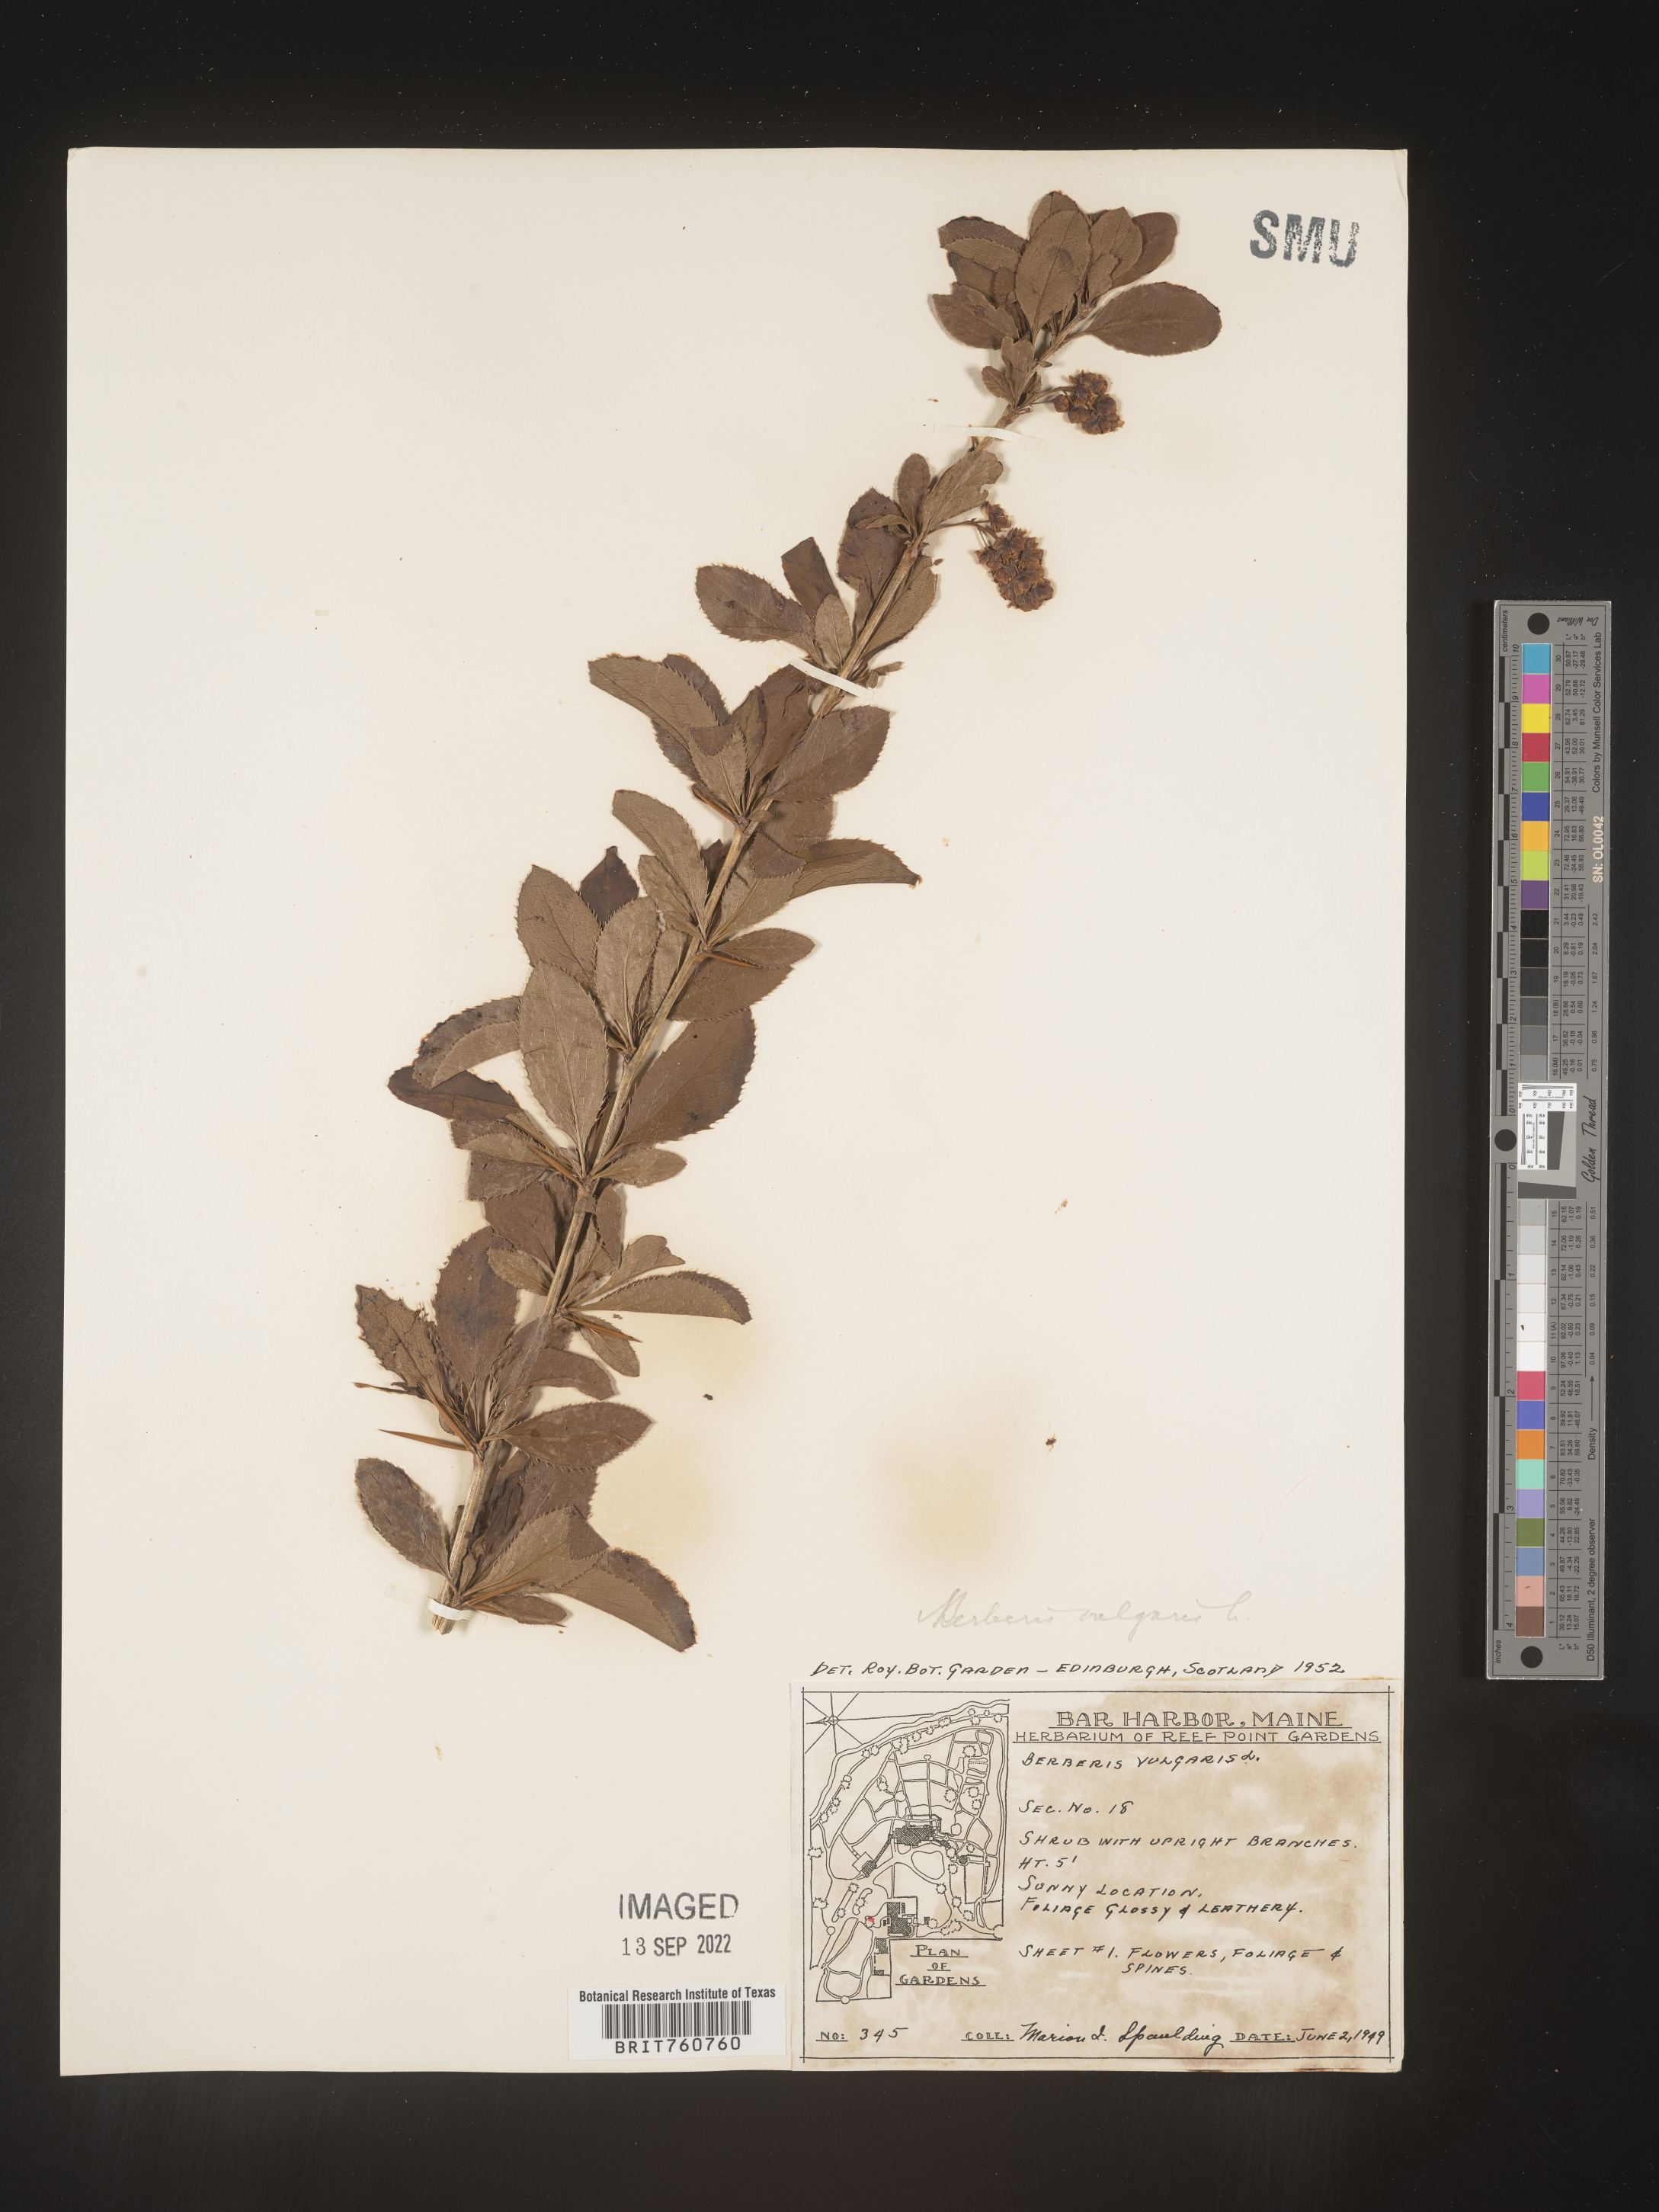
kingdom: Plantae
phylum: Tracheophyta
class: Magnoliopsida
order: Ranunculales
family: Berberidaceae
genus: Berberis
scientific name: Berberis
